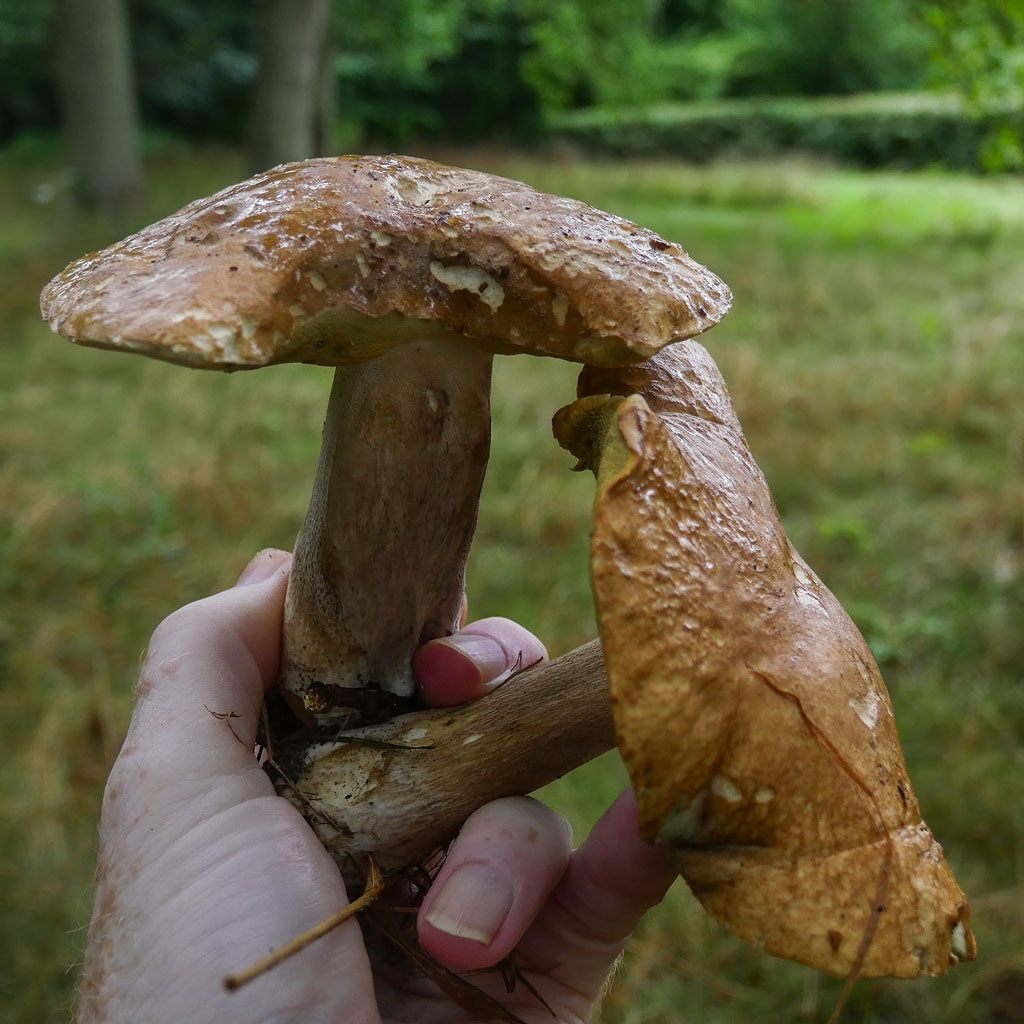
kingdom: Fungi
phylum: Basidiomycota
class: Agaricomycetes
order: Boletales
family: Boletaceae
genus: Boletus
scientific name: Boletus reticulatus
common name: sommer-rørhat
